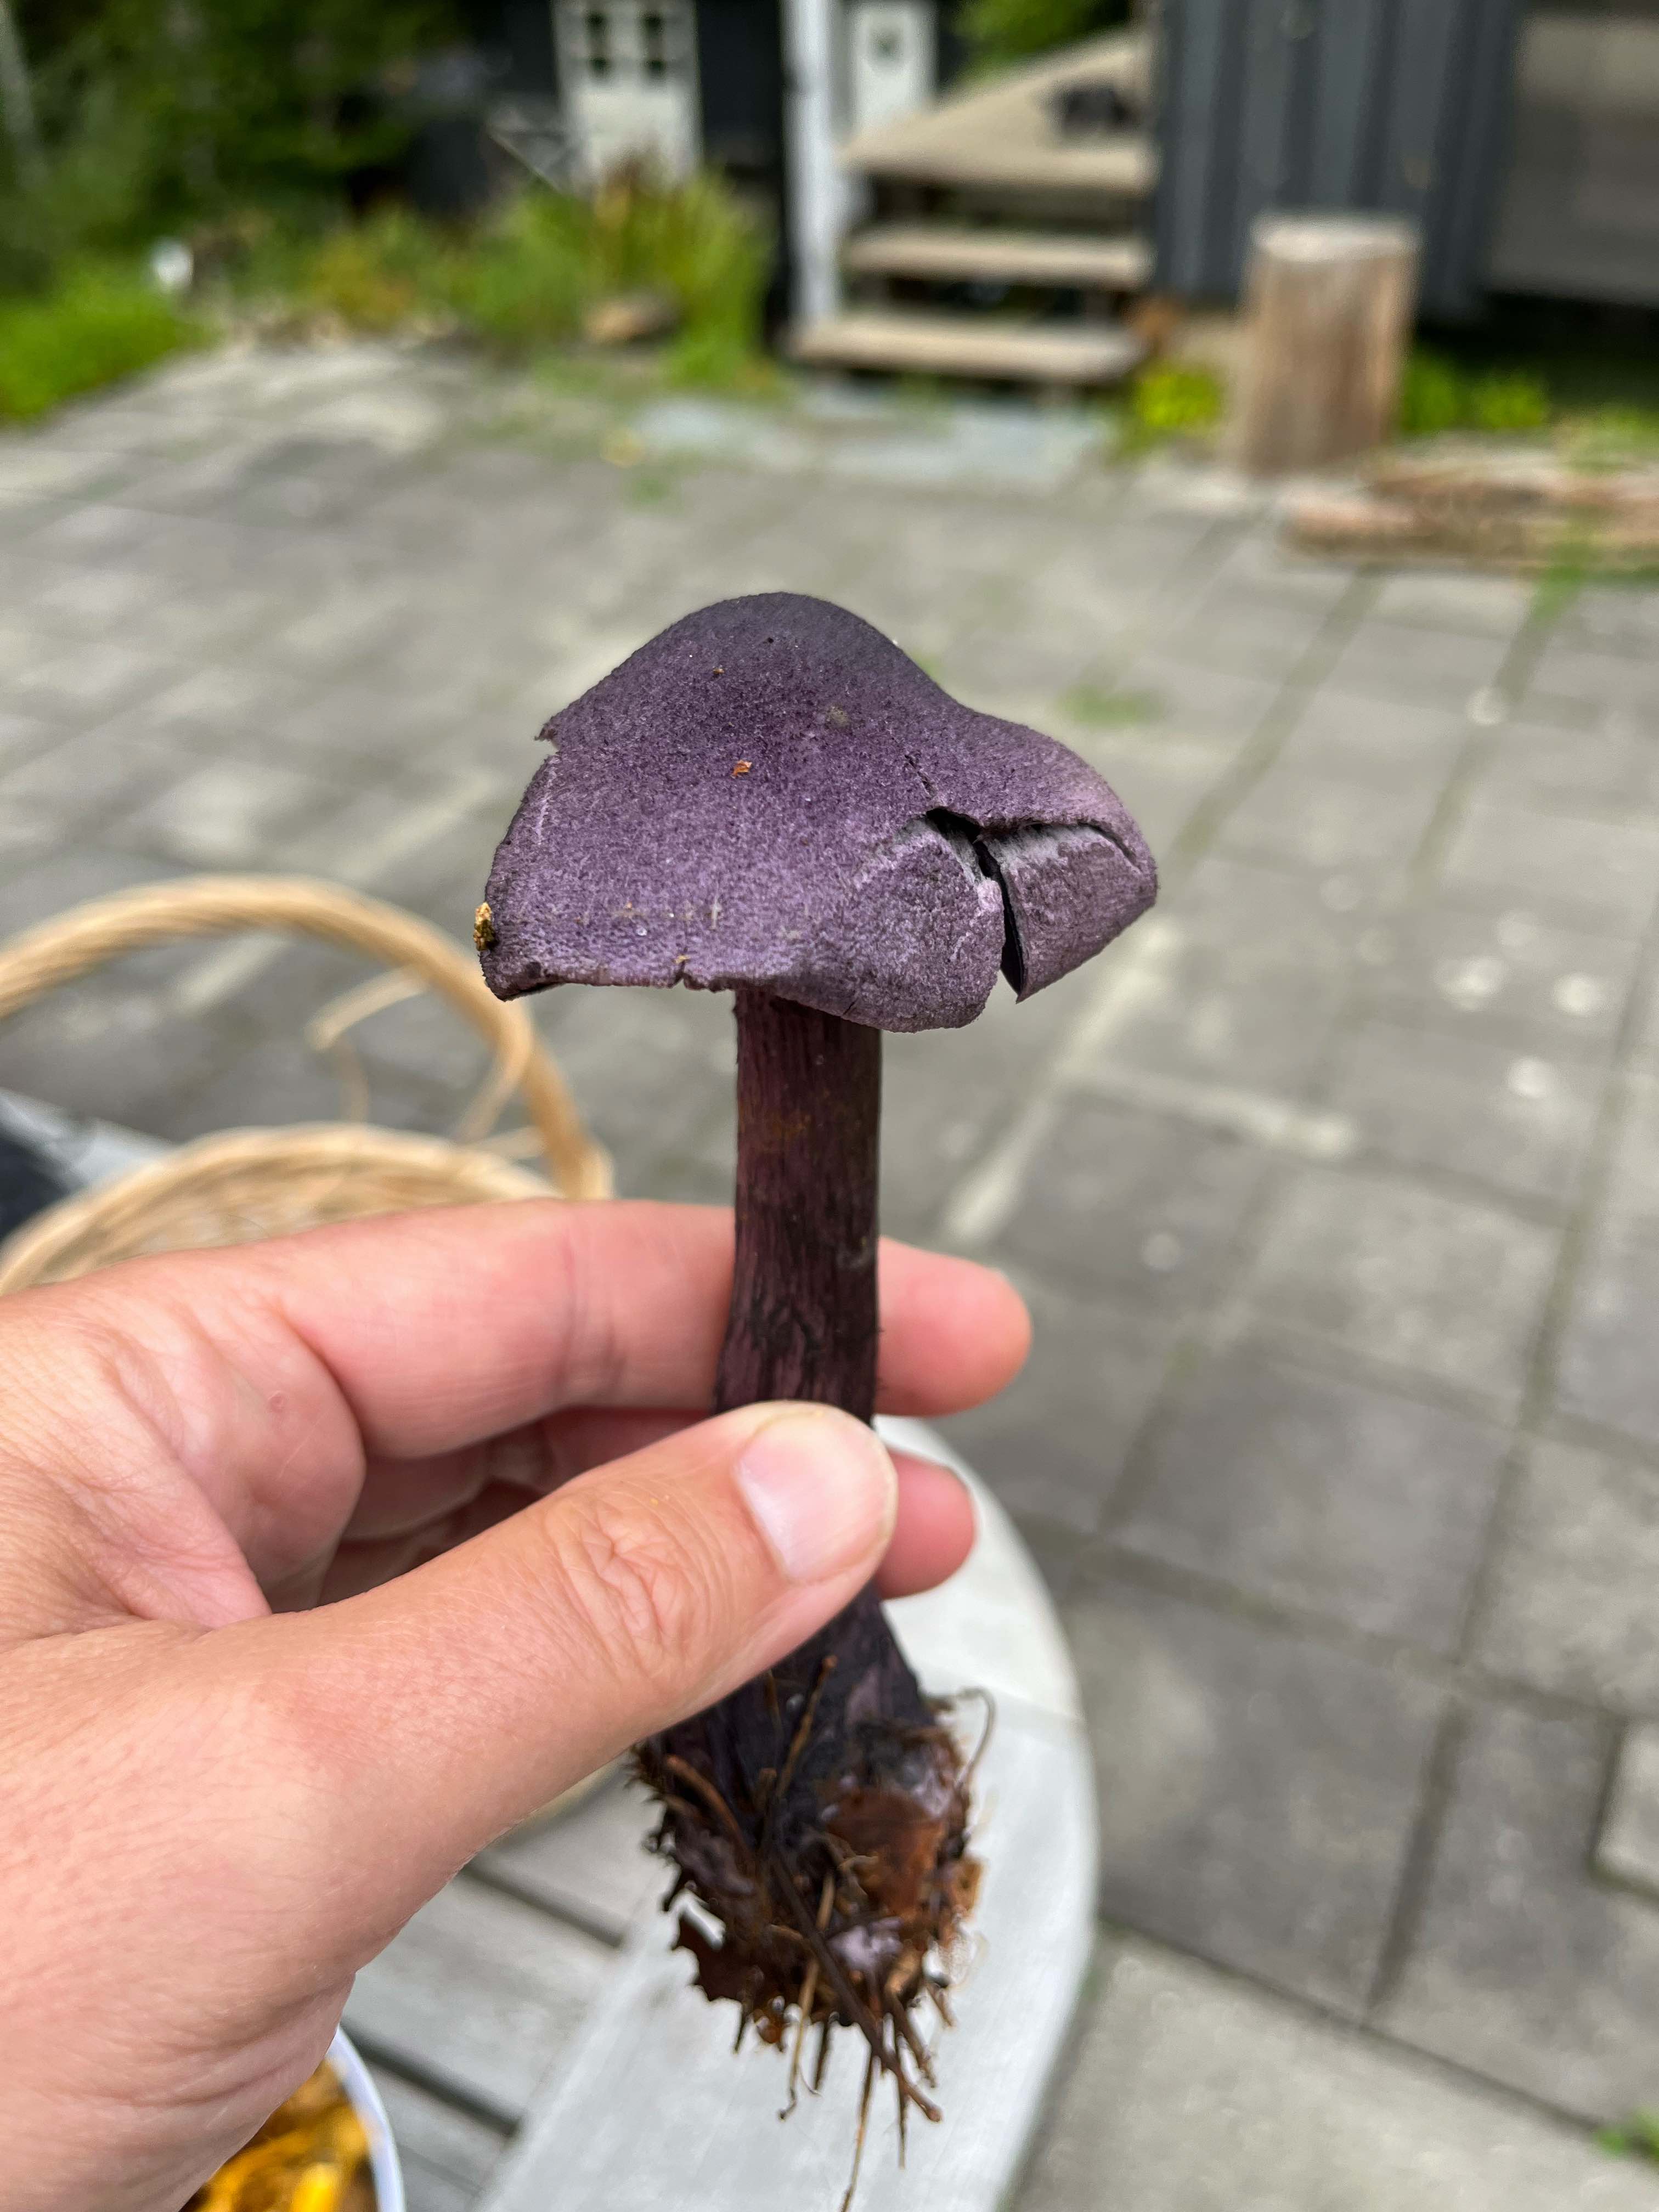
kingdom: Fungi
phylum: Basidiomycota
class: Agaricomycetes
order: Agaricales
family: Cortinariaceae
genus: Cortinarius
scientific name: Cortinarius violaceus
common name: mørkviolet slørhat
